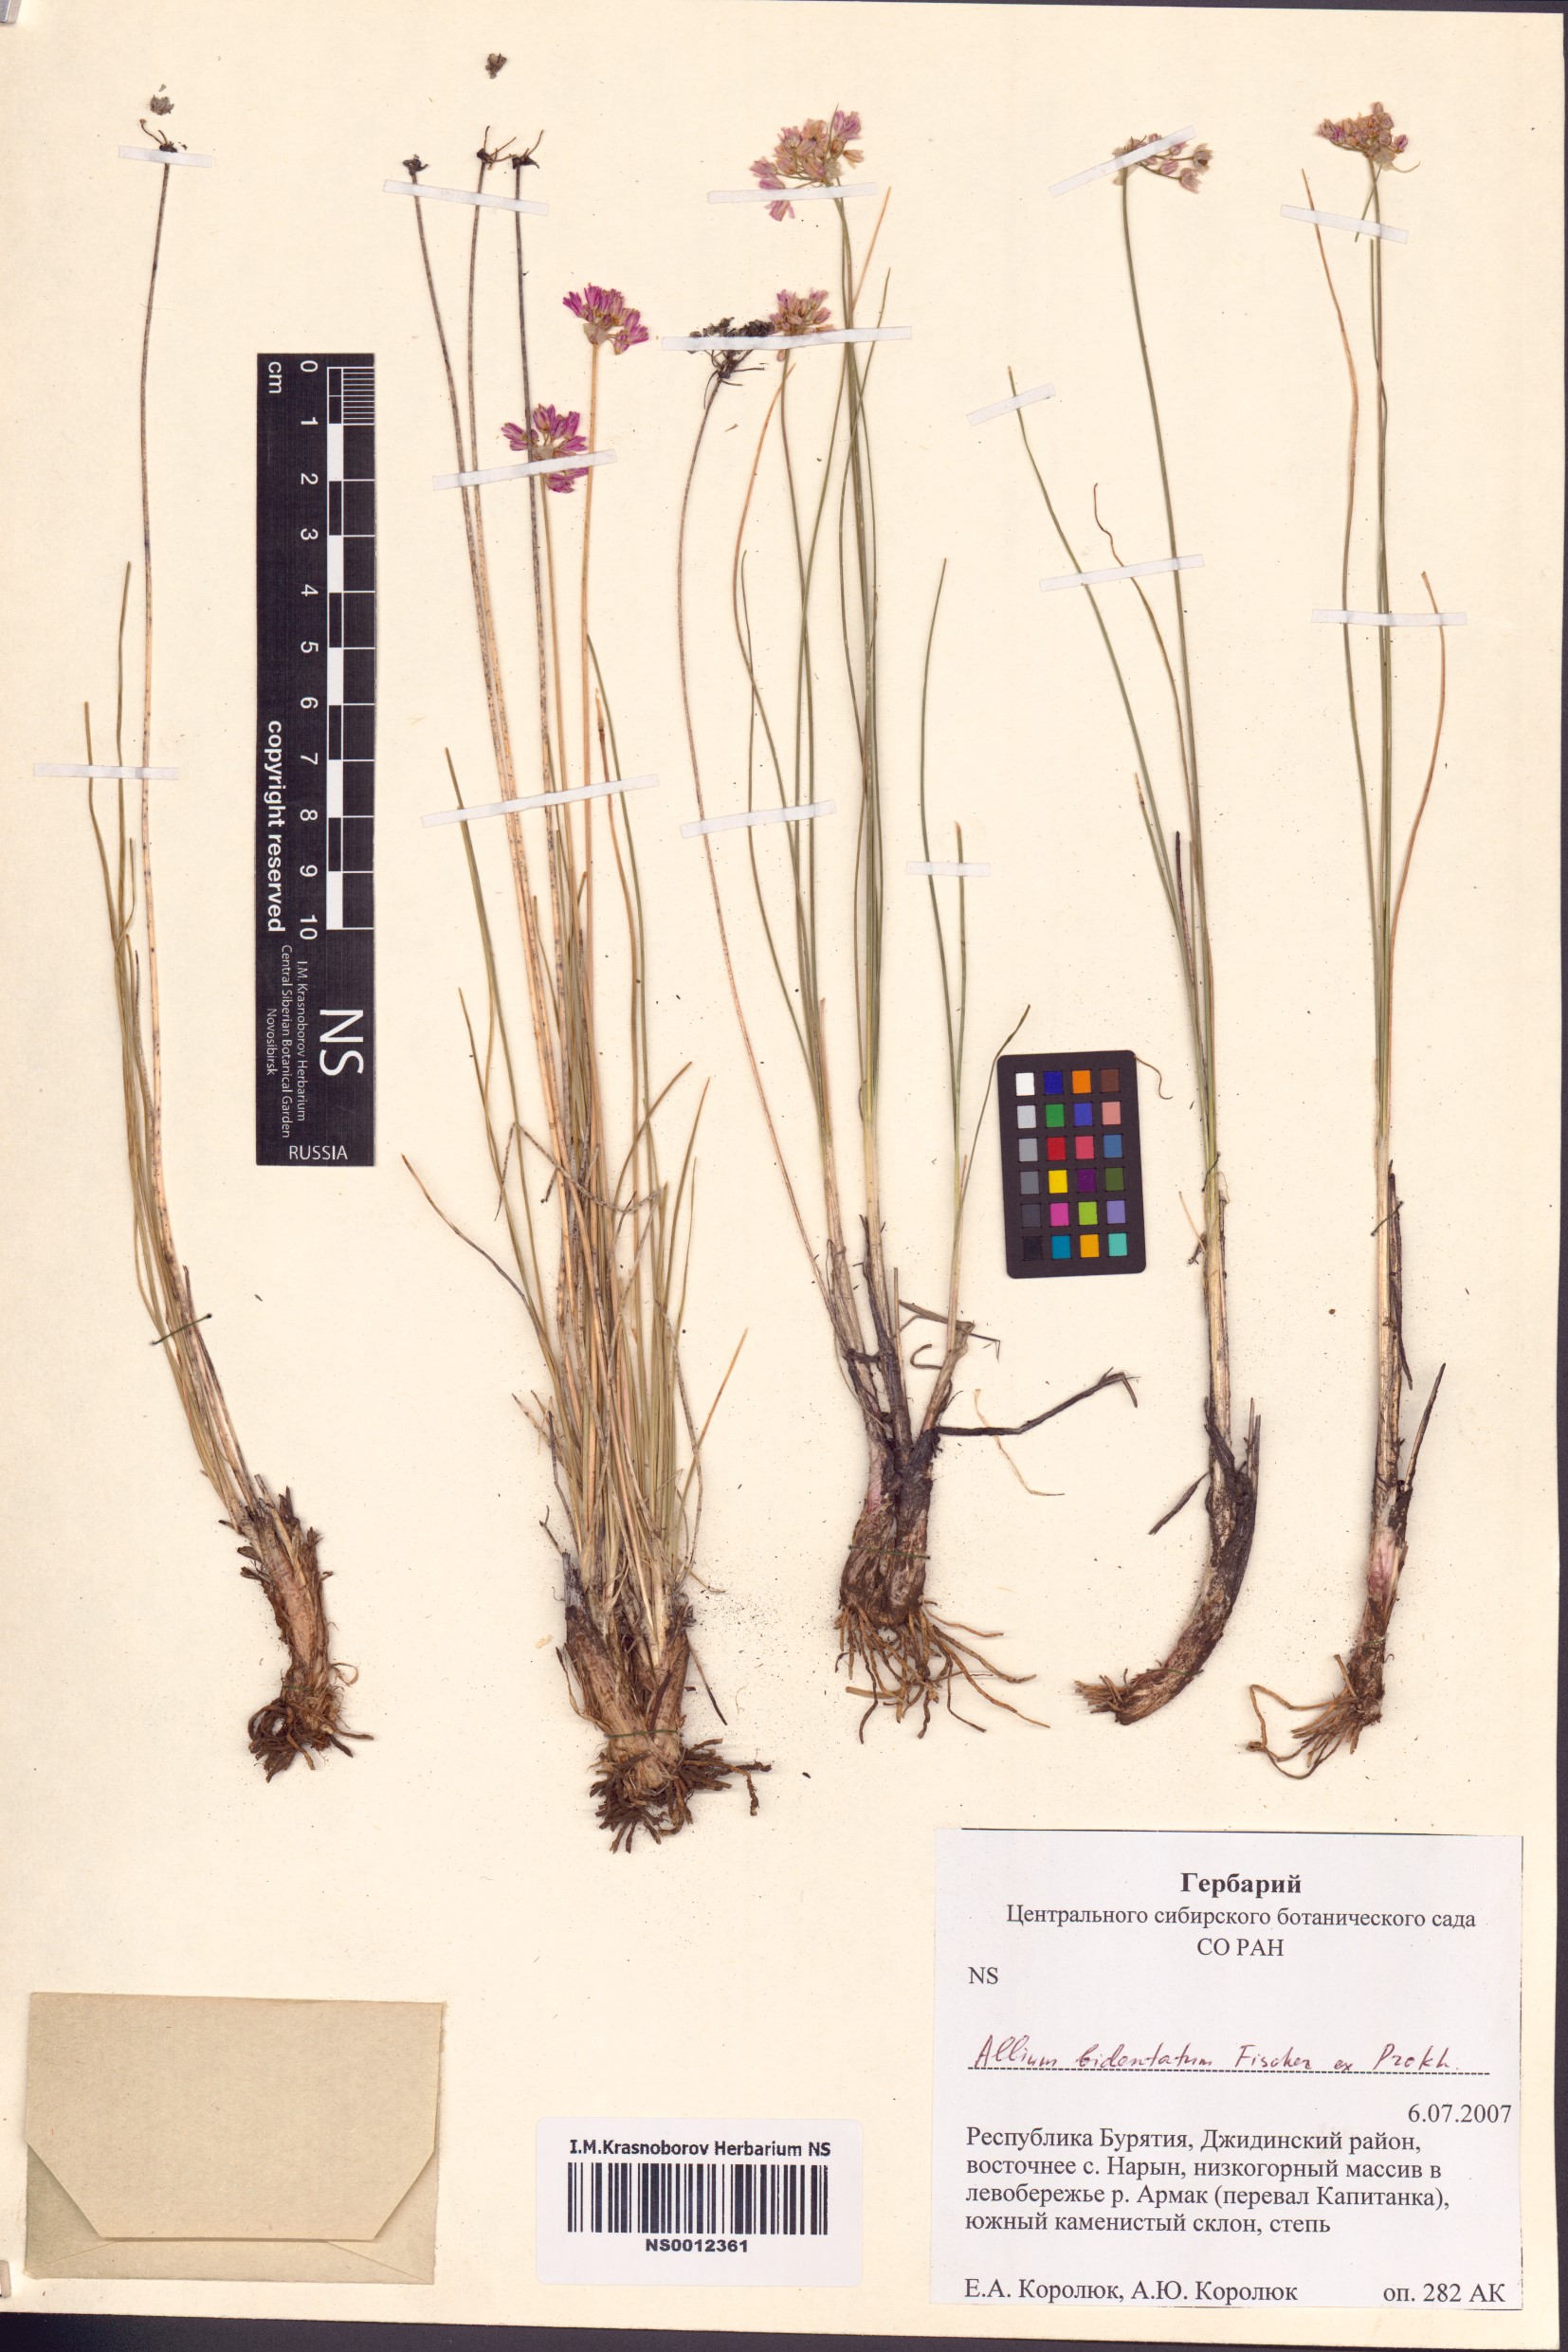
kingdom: Plantae
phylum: Tracheophyta
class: Liliopsida
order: Asparagales
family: Amaryllidaceae
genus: Allium
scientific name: Allium bidentatum
